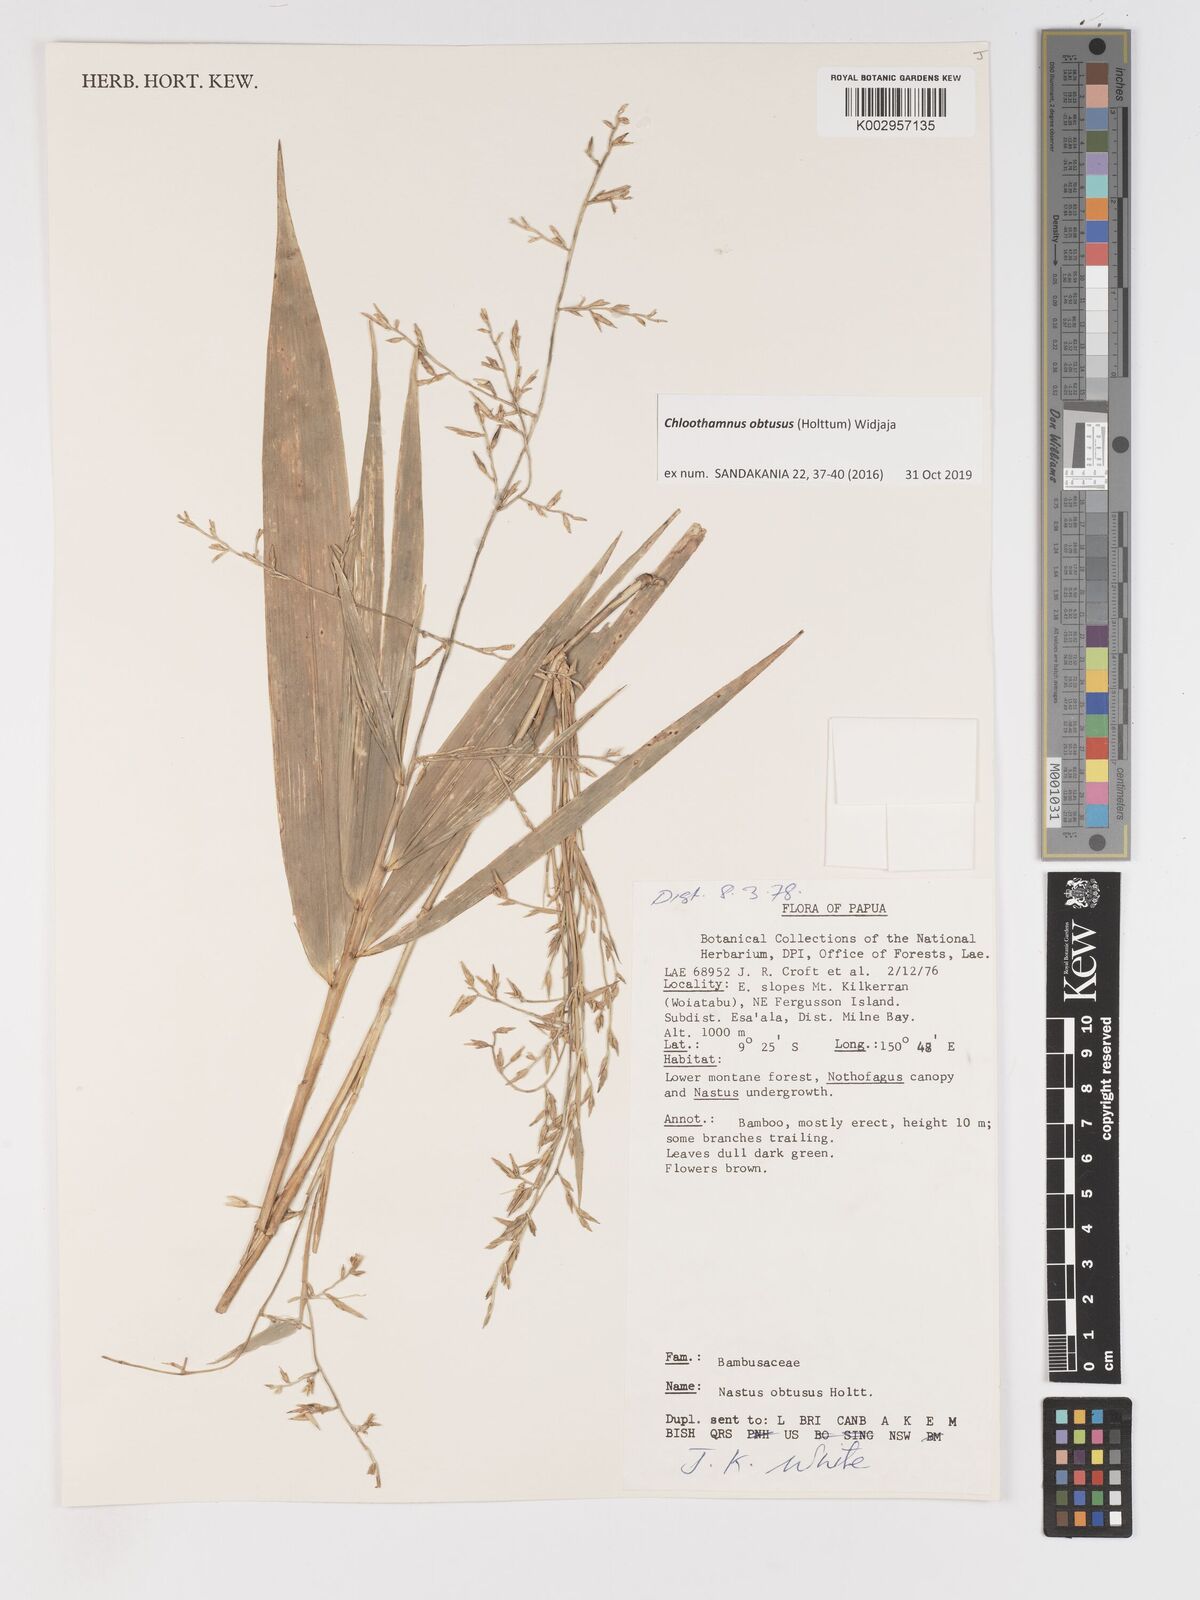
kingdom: Plantae
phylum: Tracheophyta
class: Liliopsida
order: Poales
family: Poaceae
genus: Chloothamnus
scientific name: Chloothamnus obtusus
